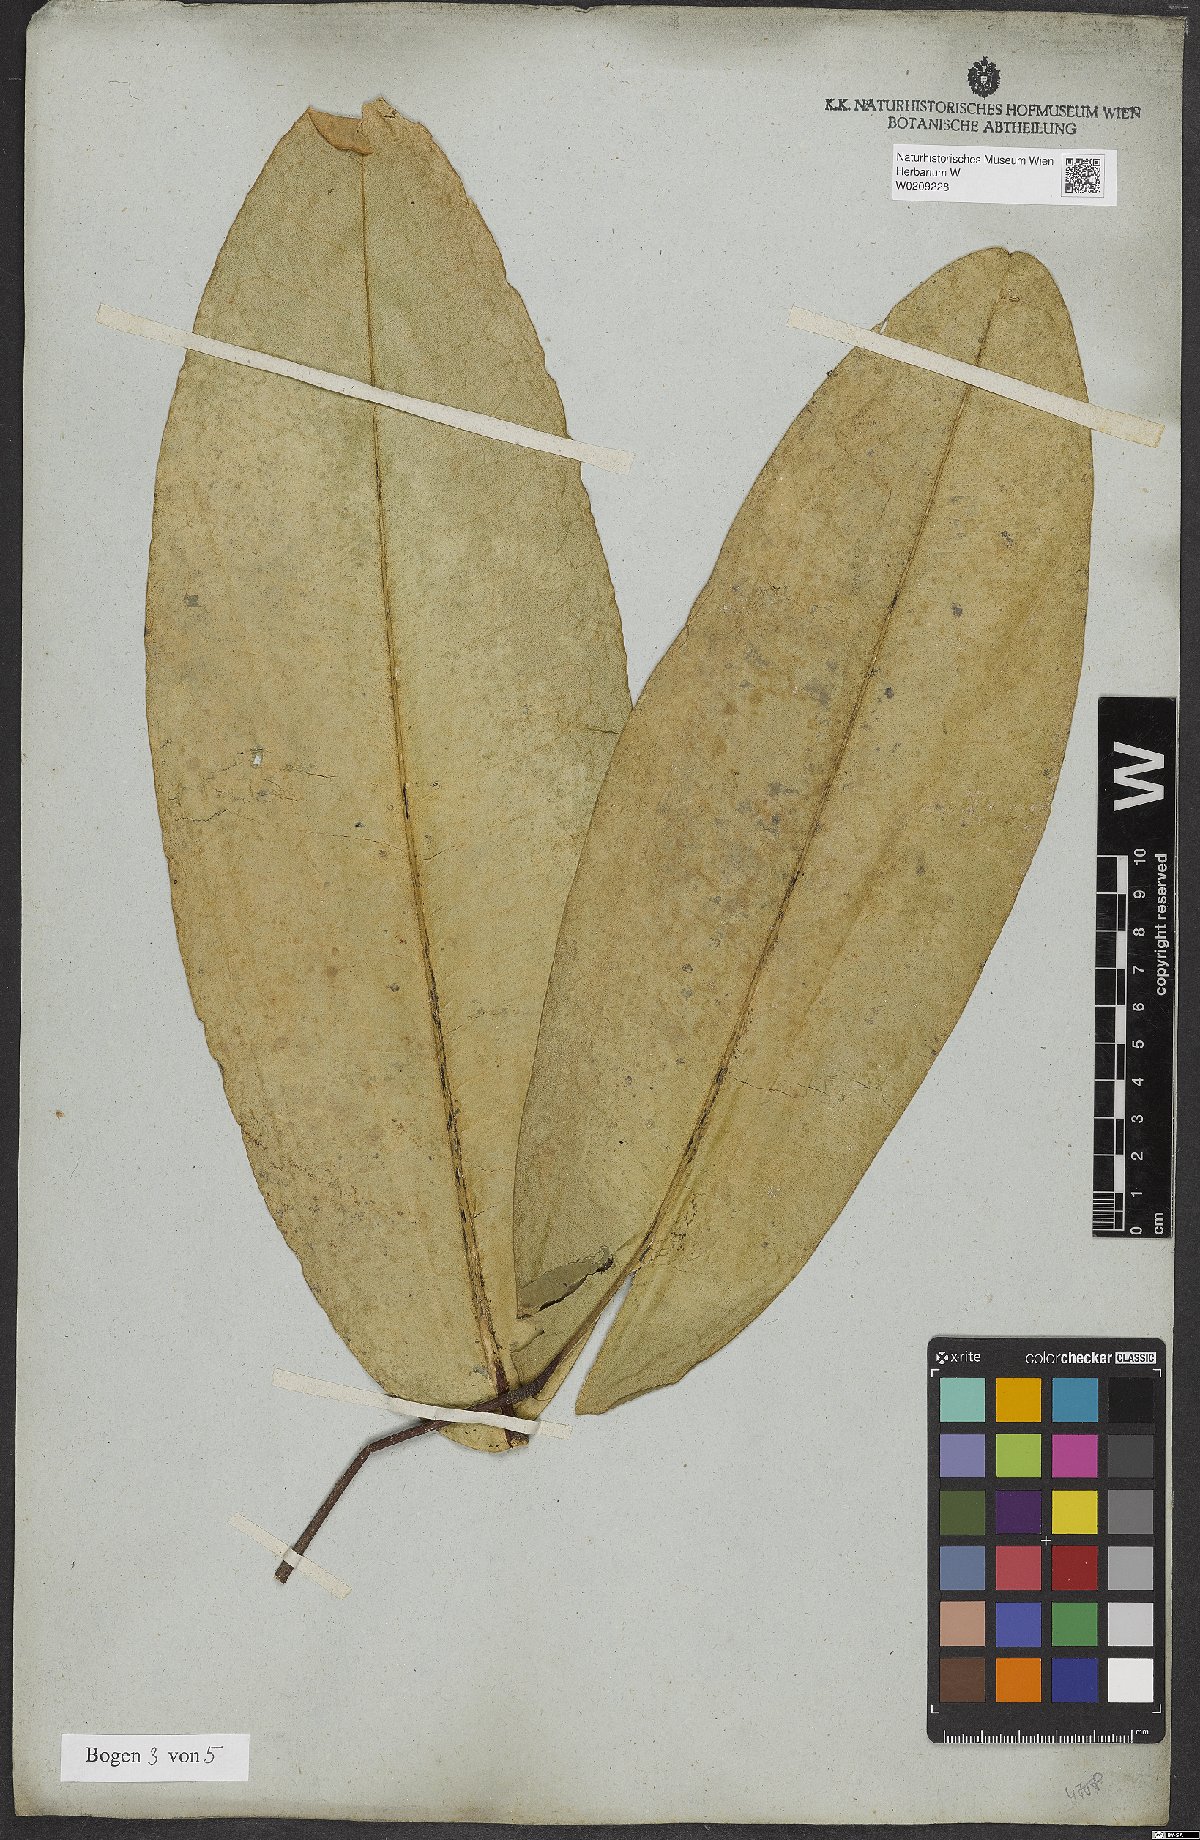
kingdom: Plantae
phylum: Tracheophyta
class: Magnoliopsida
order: Sapindales
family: Rutaceae
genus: Conchocarpus
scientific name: Conchocarpus macrophyllus
